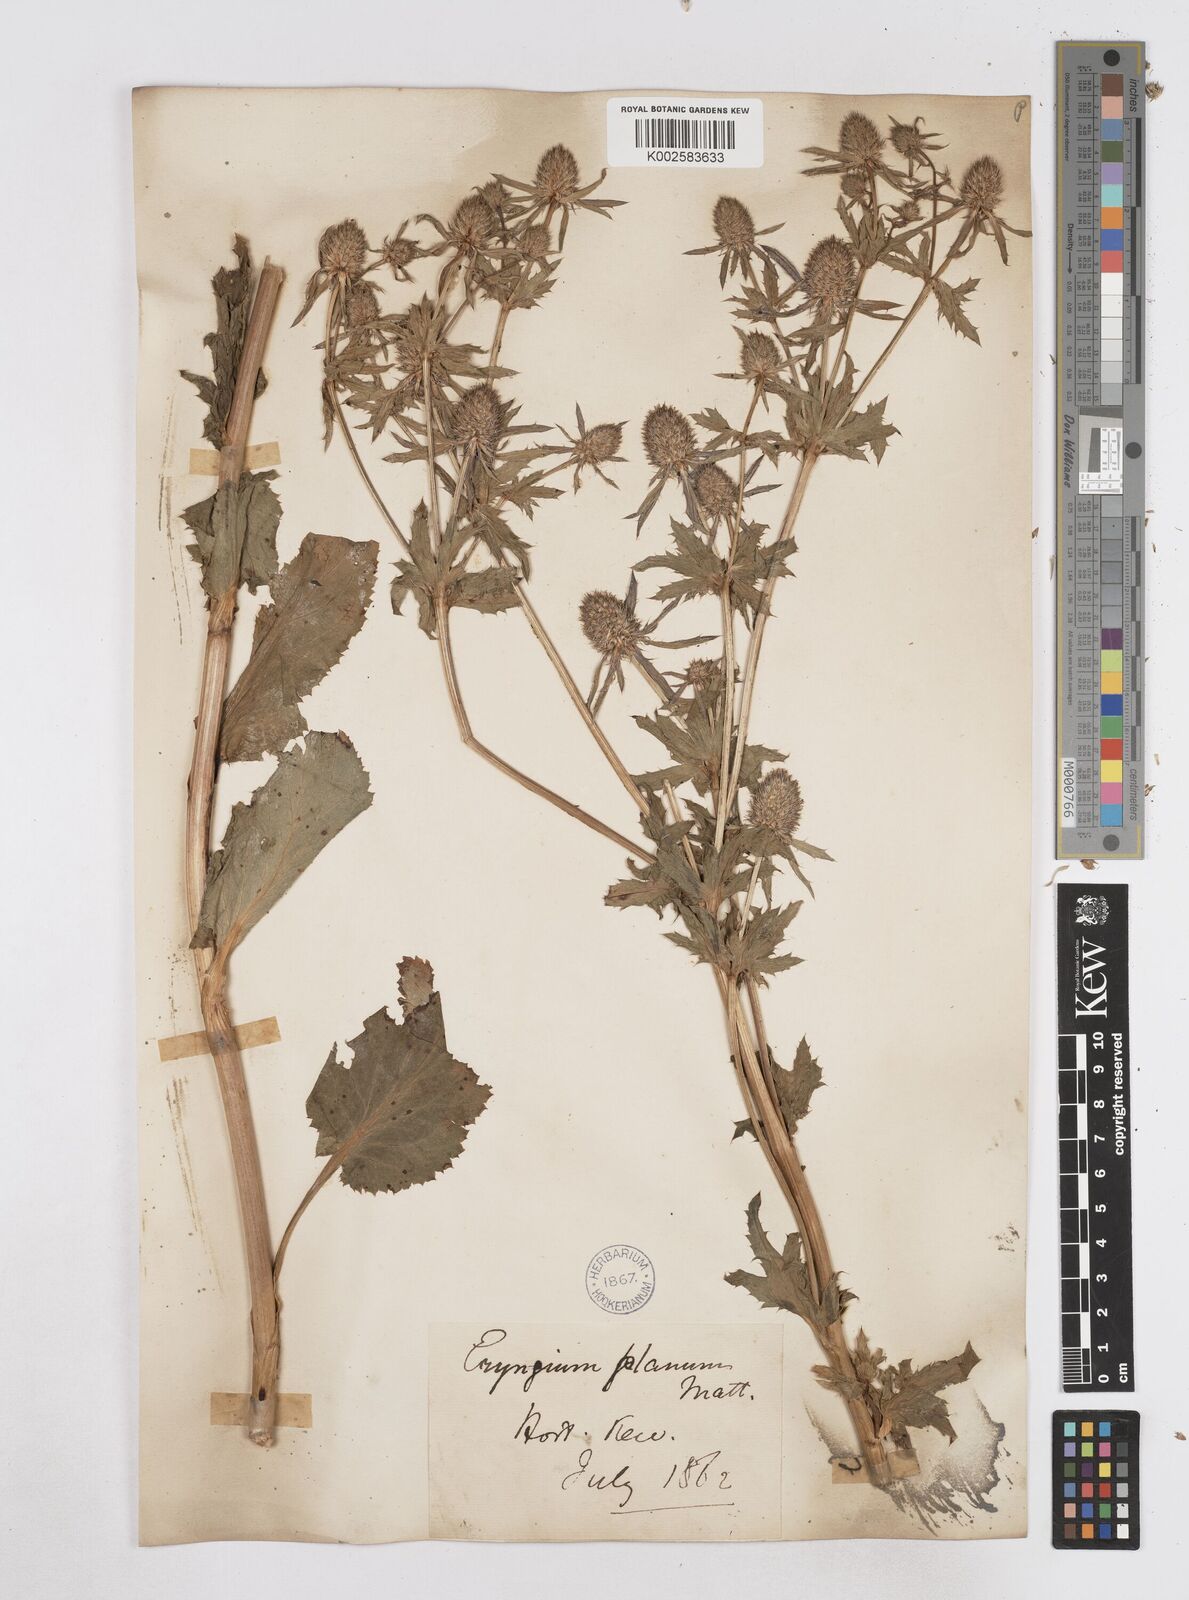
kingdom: Plantae
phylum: Tracheophyta
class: Magnoliopsida
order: Apiales
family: Apiaceae
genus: Eryngium
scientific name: Eryngium planum
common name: Blue eryngo
